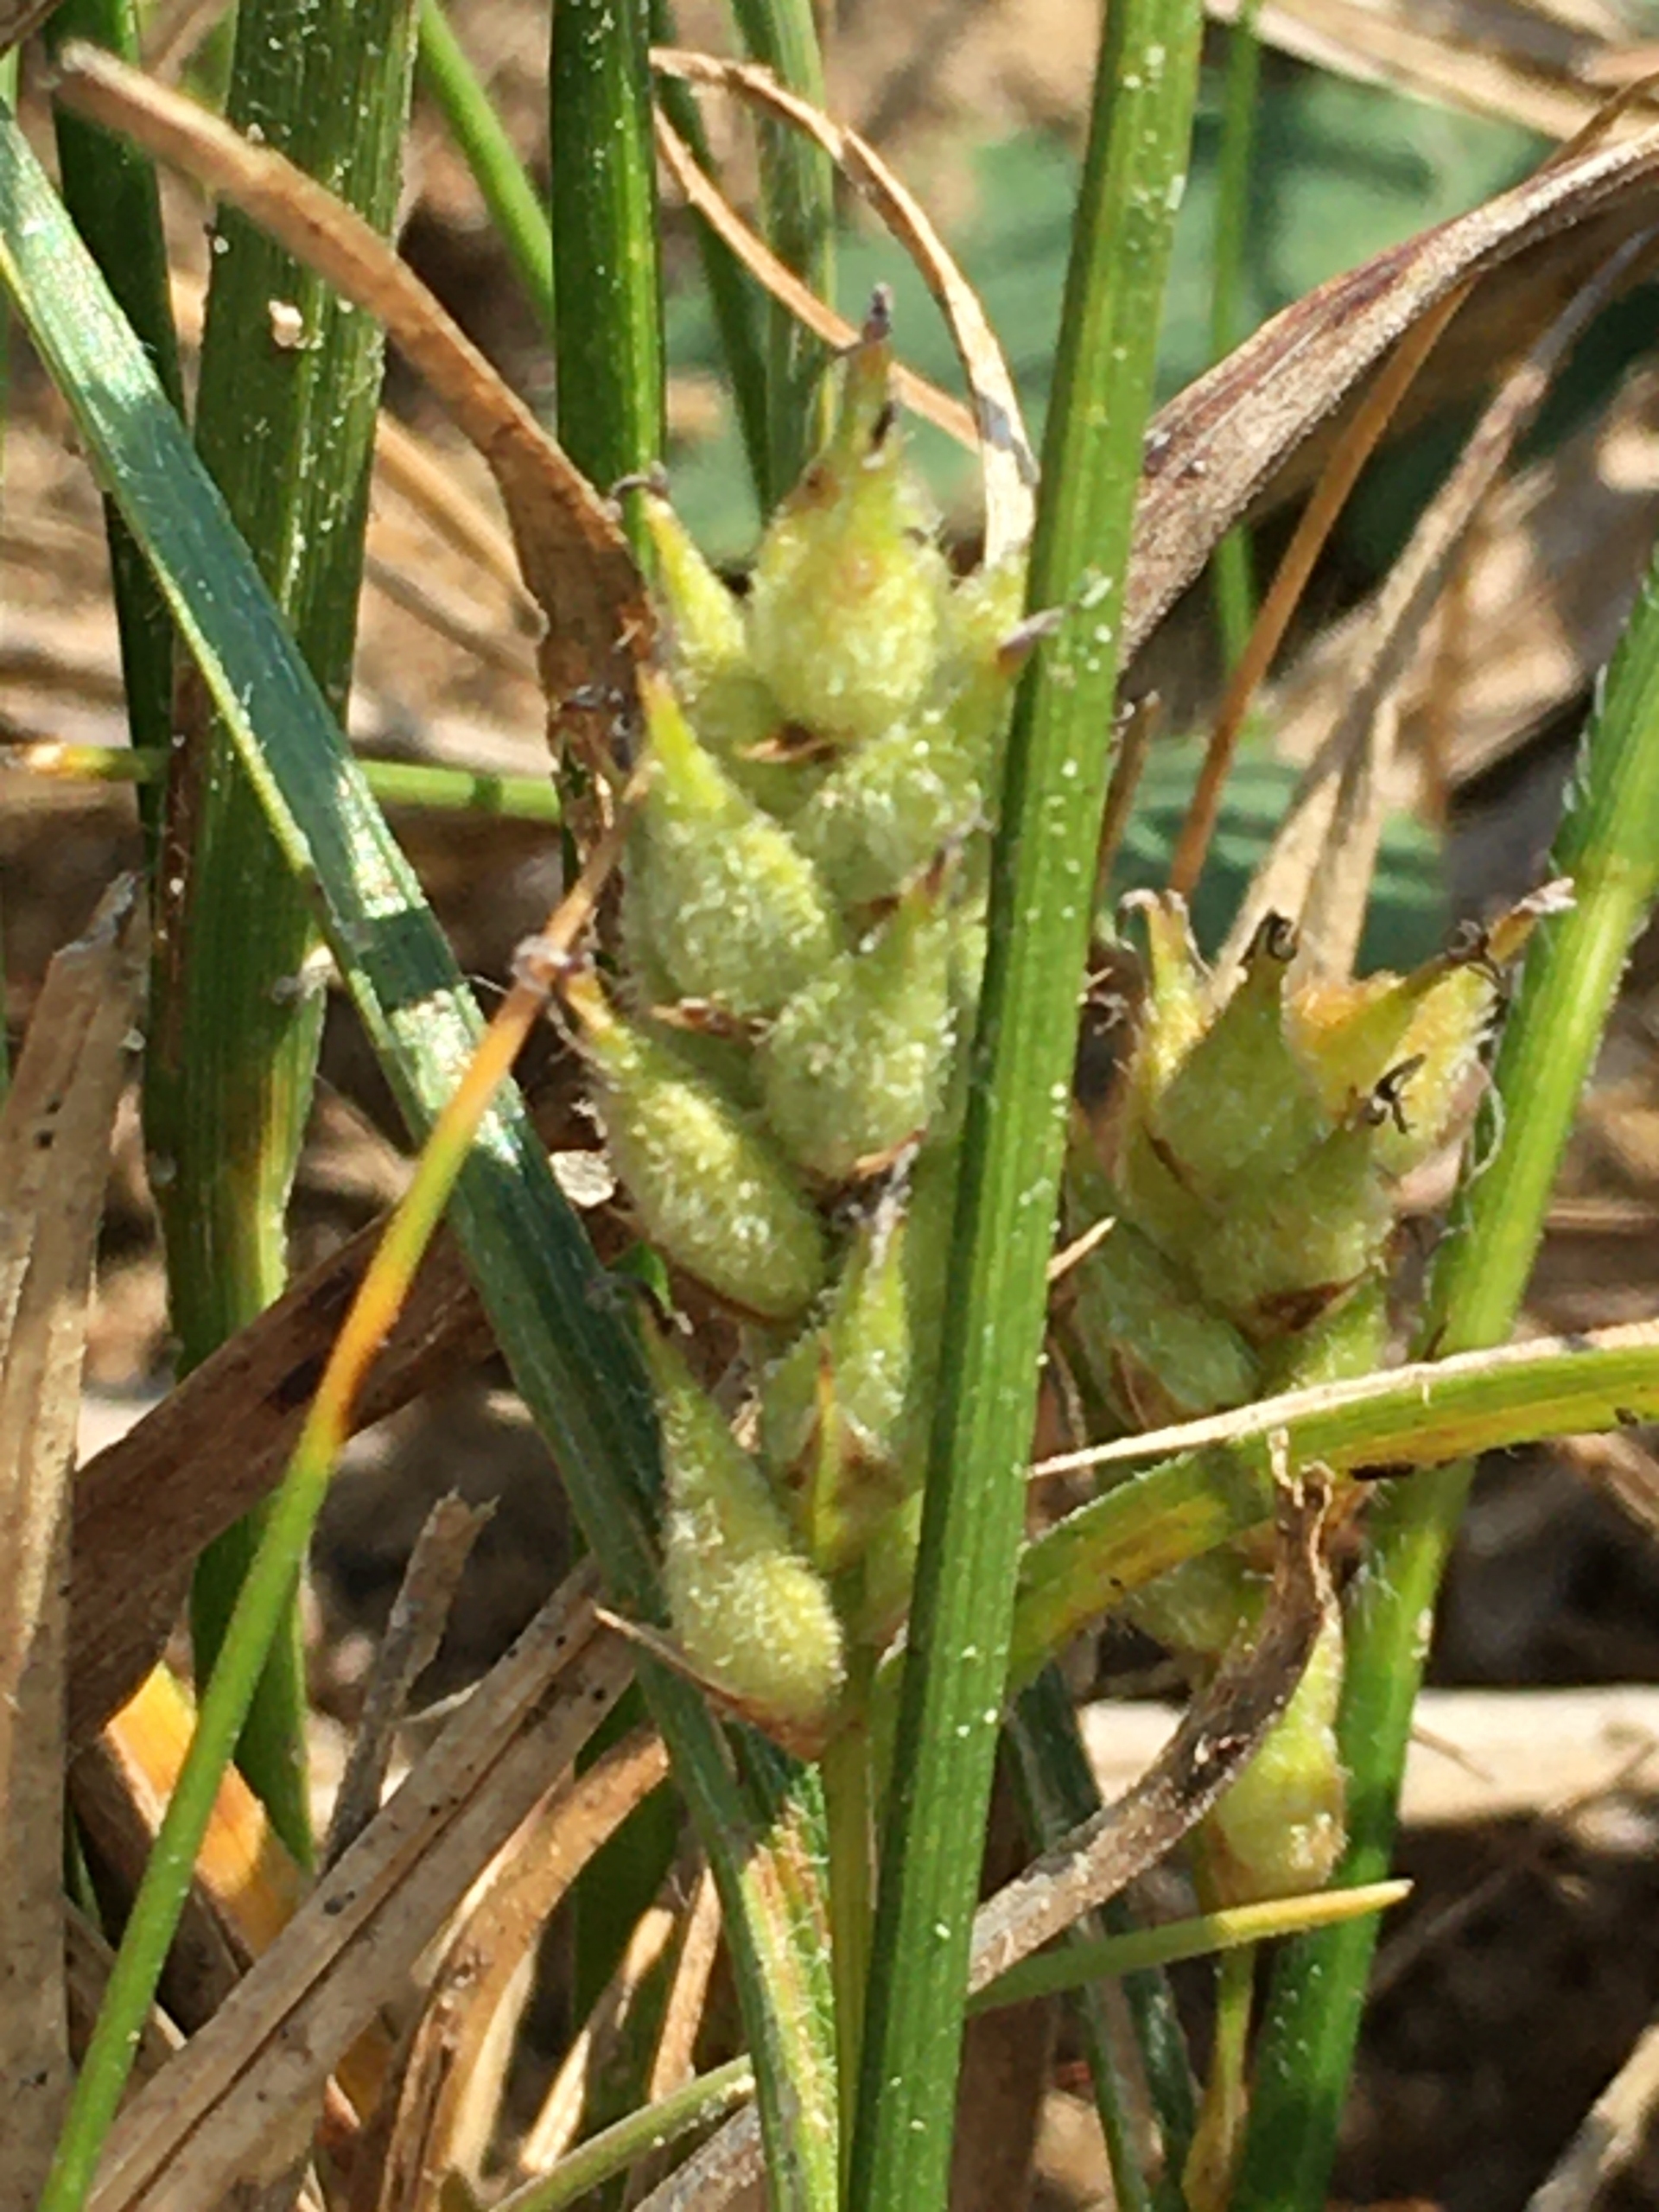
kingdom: Plantae
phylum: Tracheophyta
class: Liliopsida
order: Poales
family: Cyperaceae
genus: Carex
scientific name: Carex hirta
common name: Håret star
